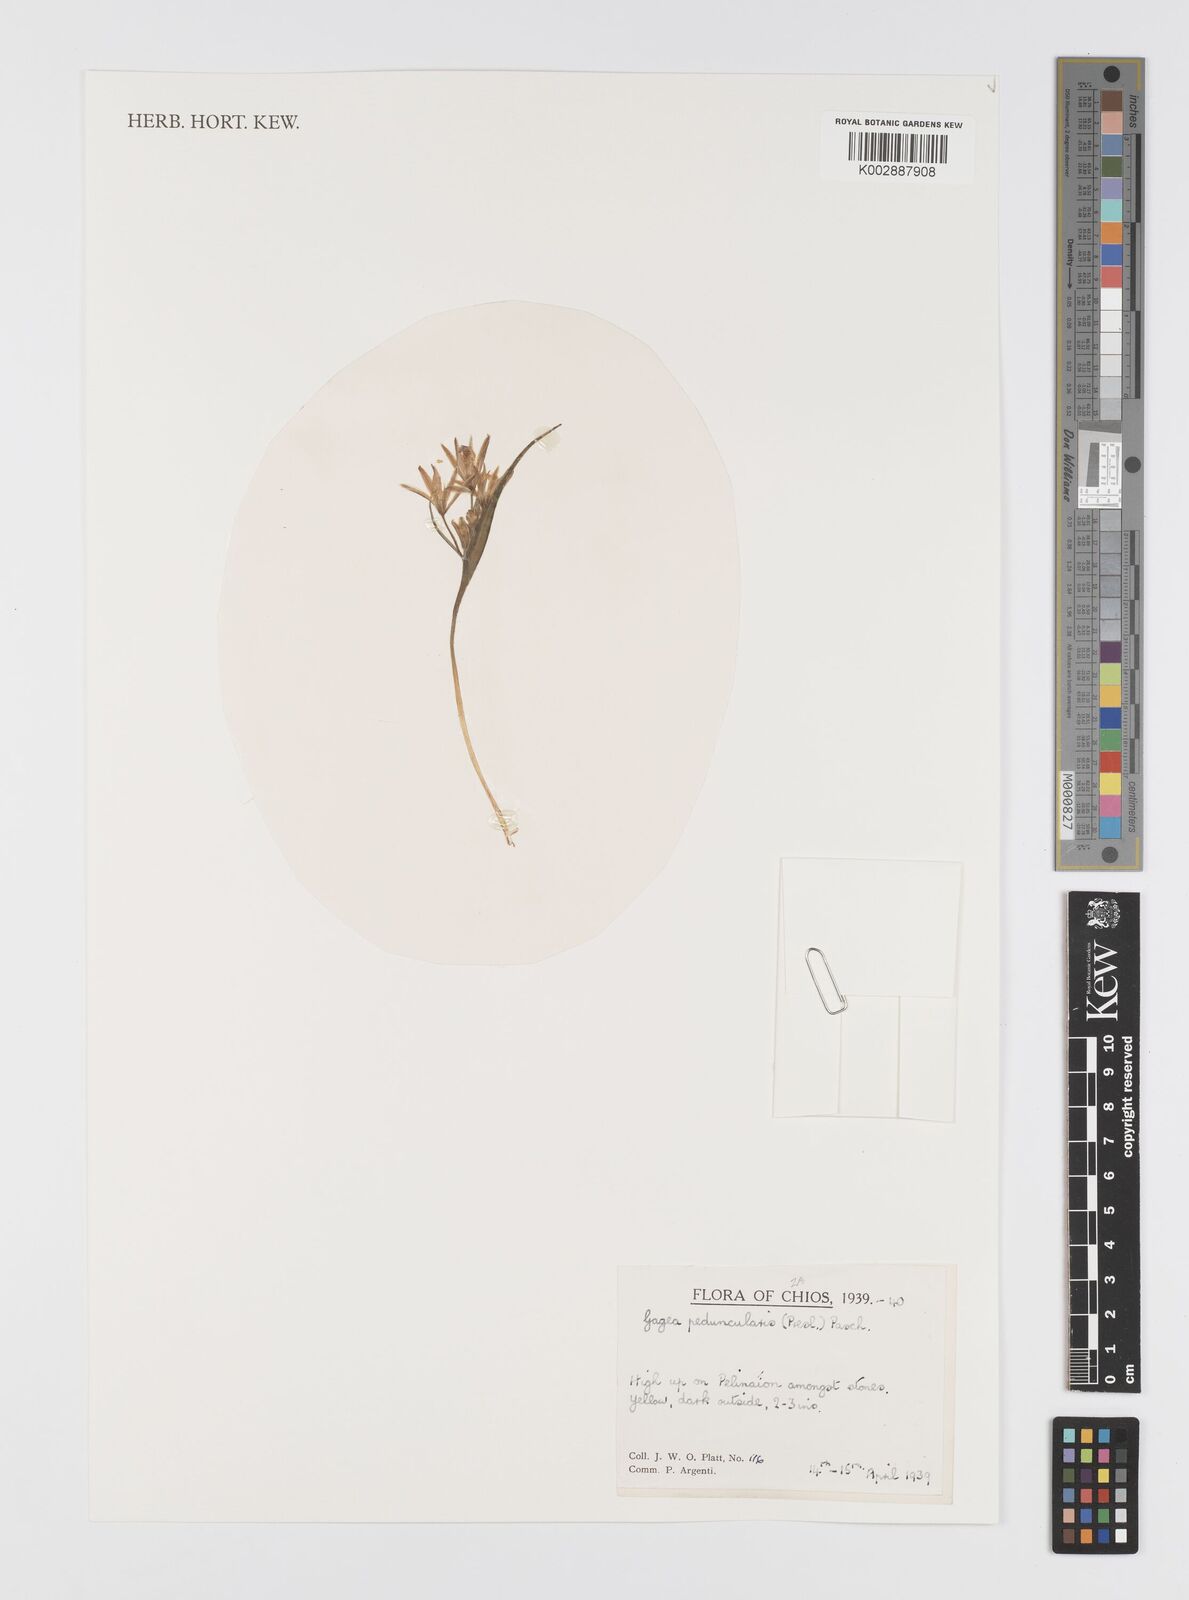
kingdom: Plantae
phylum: Tracheophyta
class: Liliopsida
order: Liliales
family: Liliaceae
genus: Gagea
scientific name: Gagea peduncularis
